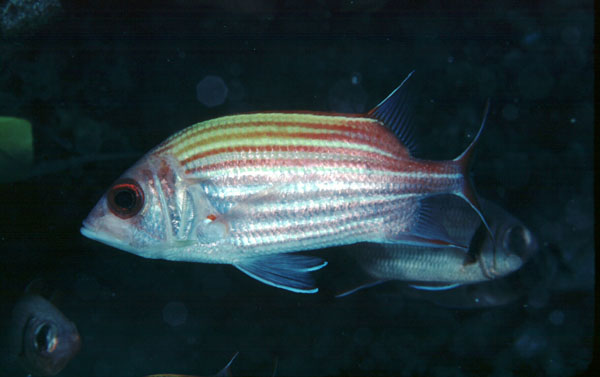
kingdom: Animalia
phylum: Chordata
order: Beryciformes
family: Holocentridae
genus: Sargocentron
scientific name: Sargocentron ensifer
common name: Yellow-striped squirrelfish
